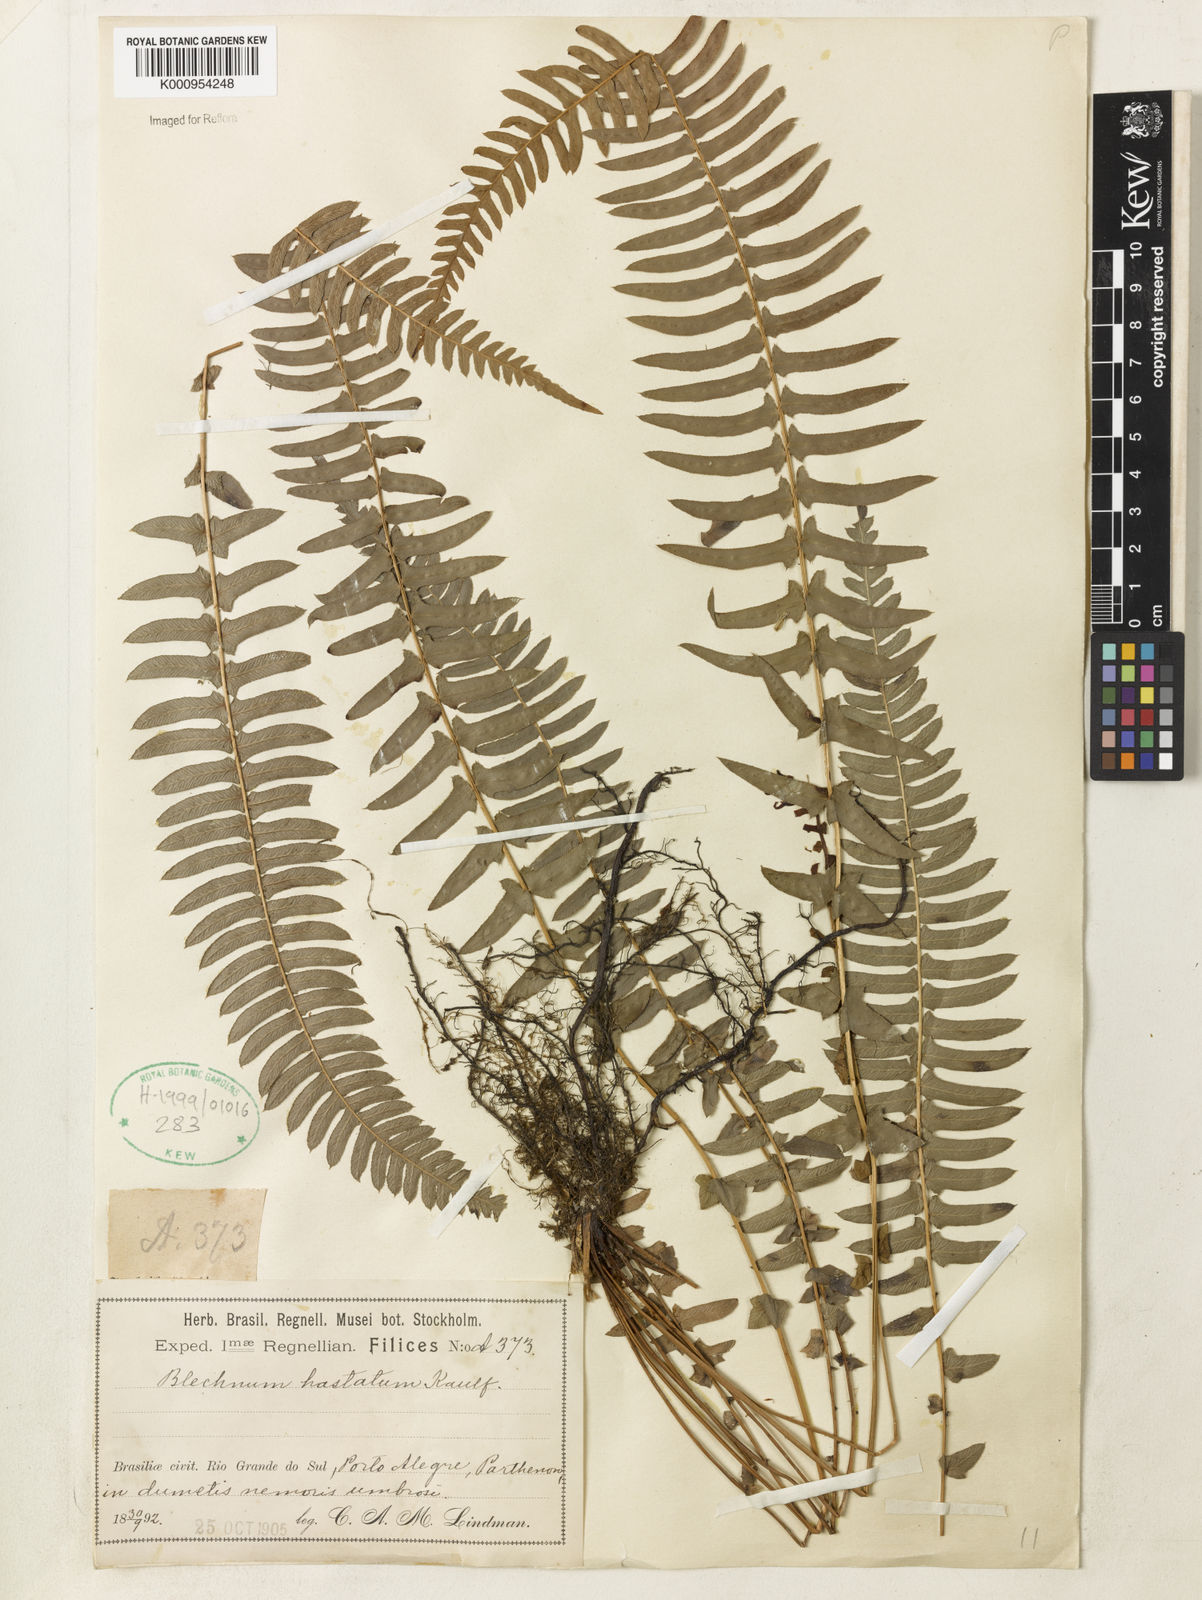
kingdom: Plantae
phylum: Tracheophyta
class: Polypodiopsida
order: Polypodiales
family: Blechnaceae
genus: Blechnum
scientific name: Blechnum australe
